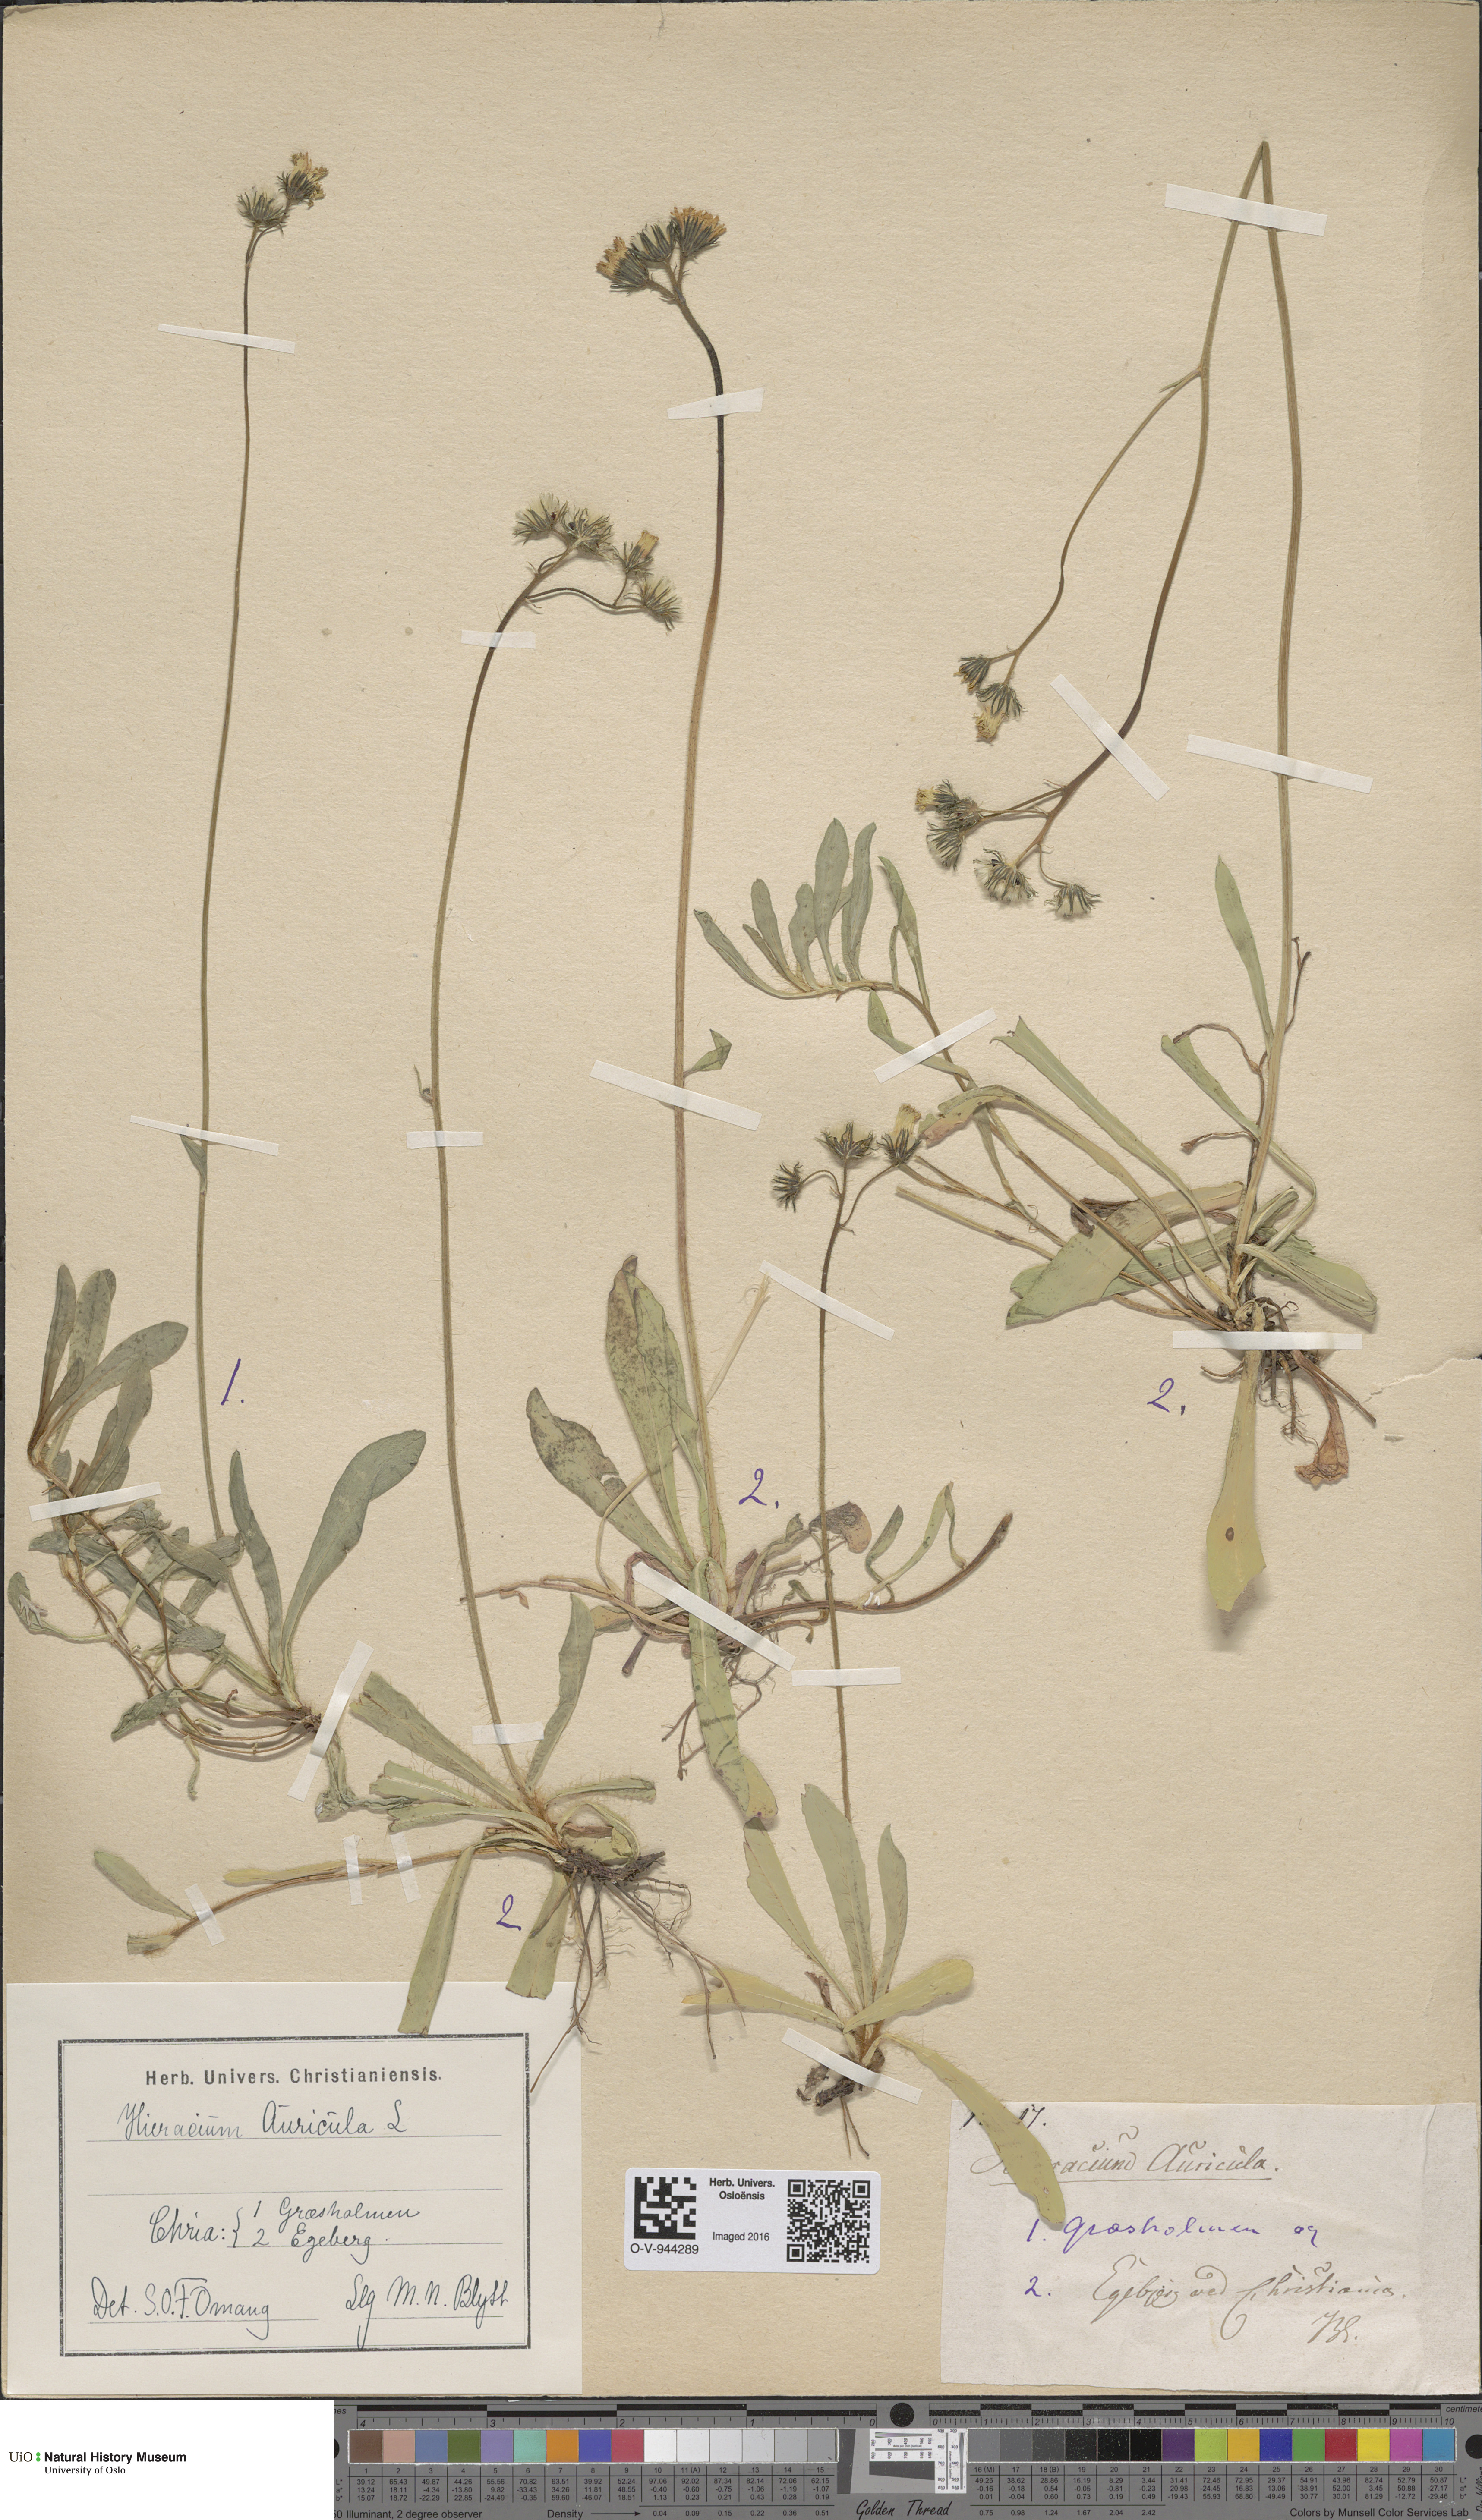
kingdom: Plantae
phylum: Tracheophyta
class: Magnoliopsida
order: Asterales
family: Asteraceae
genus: Pilosella
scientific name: Pilosella lactucella
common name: Glaucous fox-and-cubs
